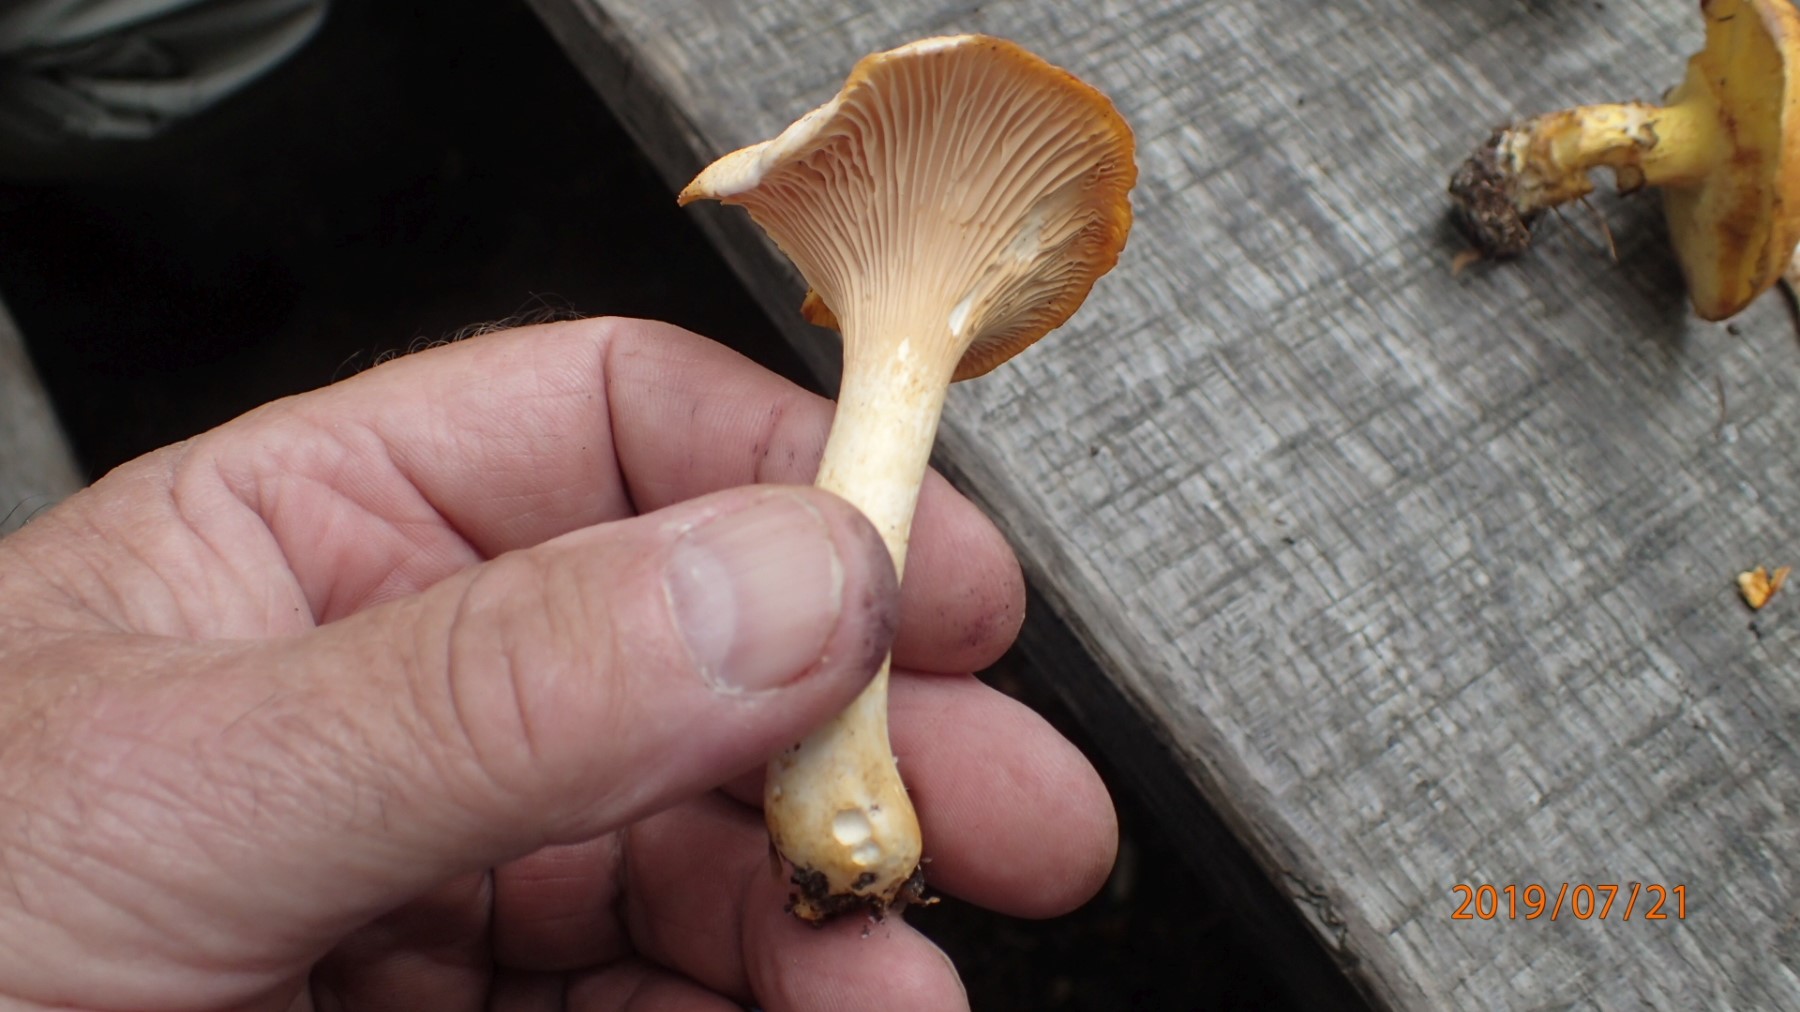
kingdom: Fungi
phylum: Basidiomycota
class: Agaricomycetes
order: Cantharellales
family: Hydnaceae
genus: Cantharellus
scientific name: Cantharellus pallens
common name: bleg kantarel
